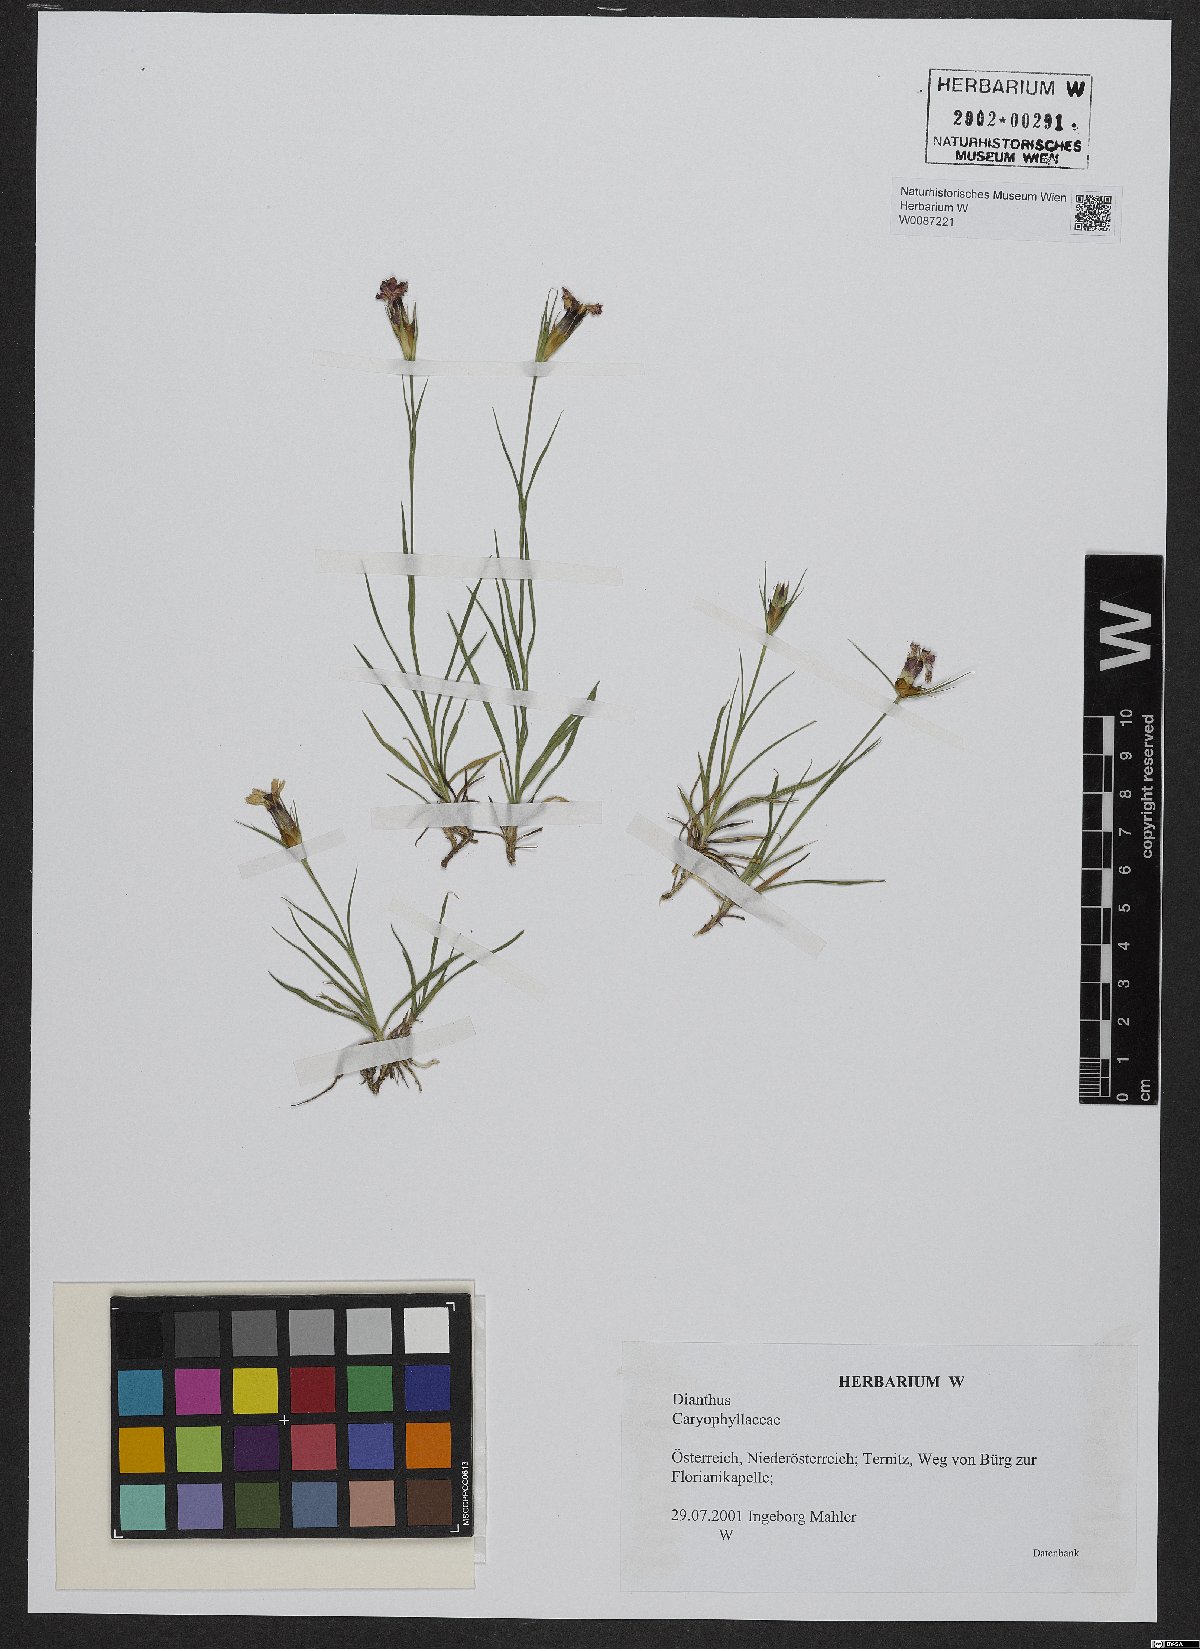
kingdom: Plantae
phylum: Tracheophyta
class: Magnoliopsida
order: Caryophyllales
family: Caryophyllaceae
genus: Dianthus
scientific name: Dianthus
